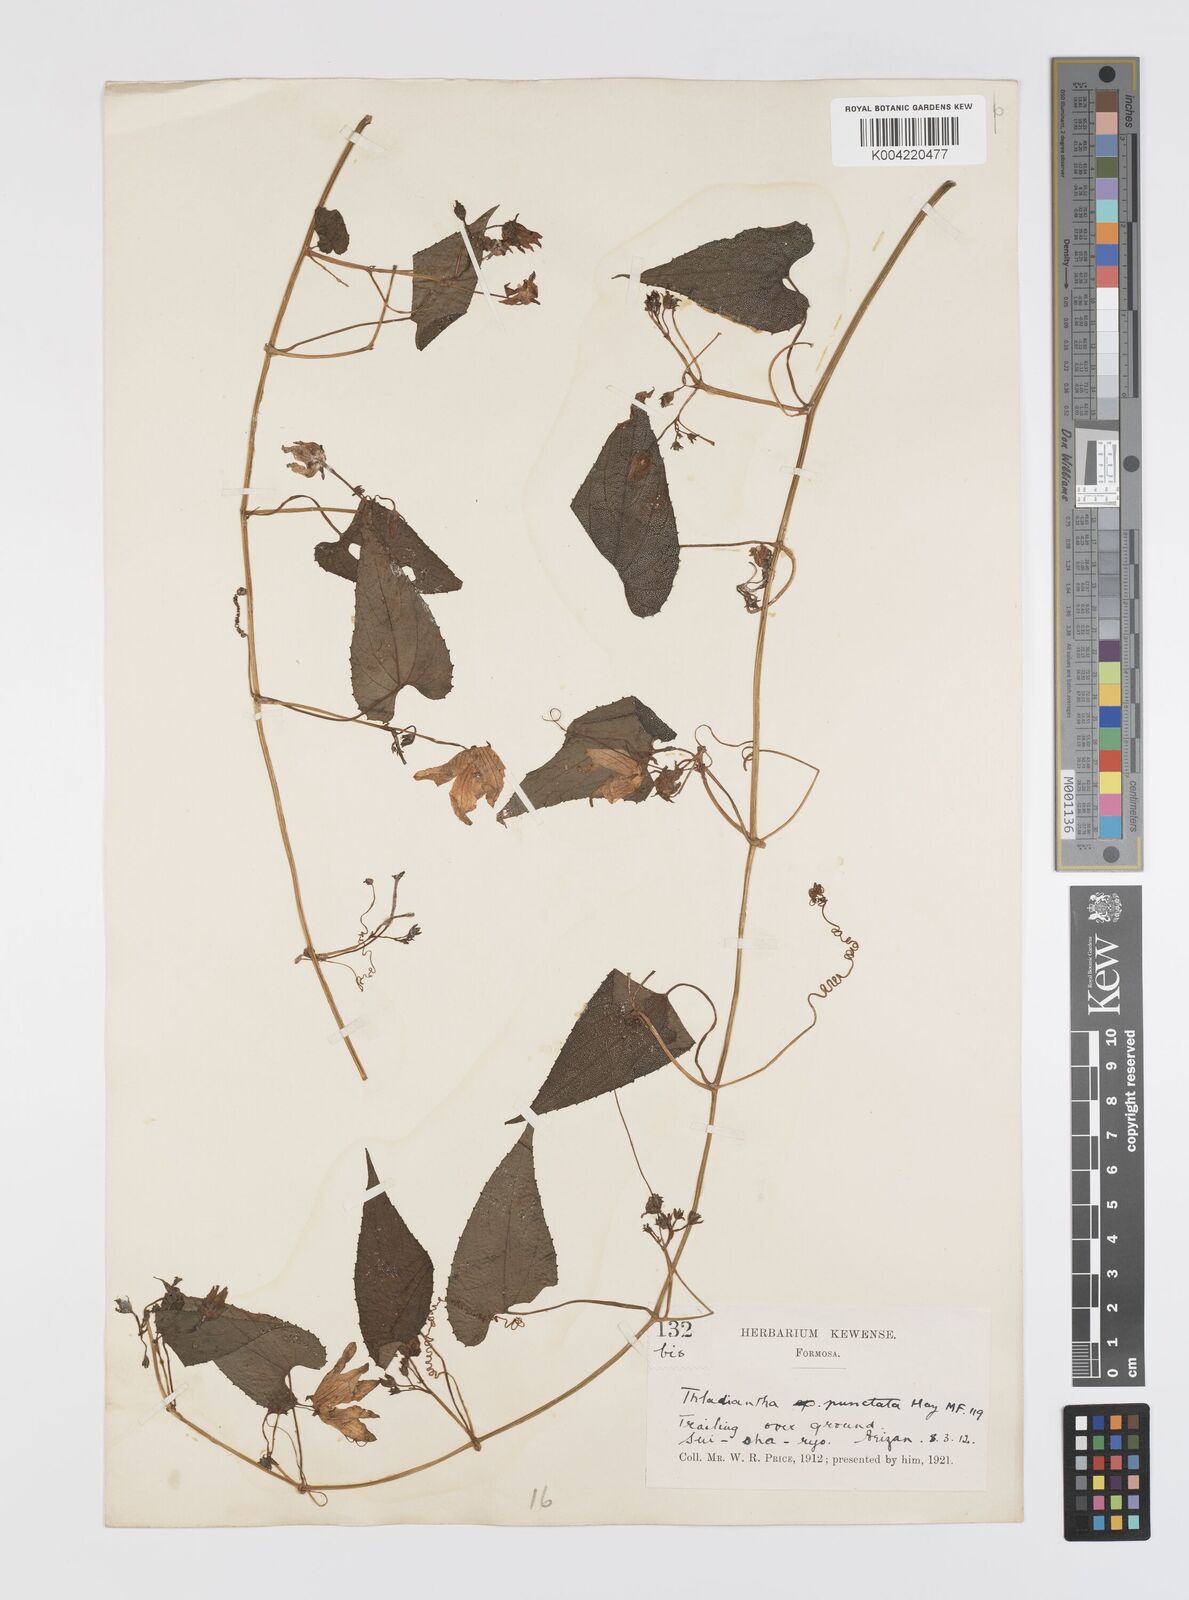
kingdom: Plantae
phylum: Tracheophyta
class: Magnoliopsida
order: Cucurbitales
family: Cucurbitaceae
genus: Thladiantha
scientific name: Thladiantha punctata
